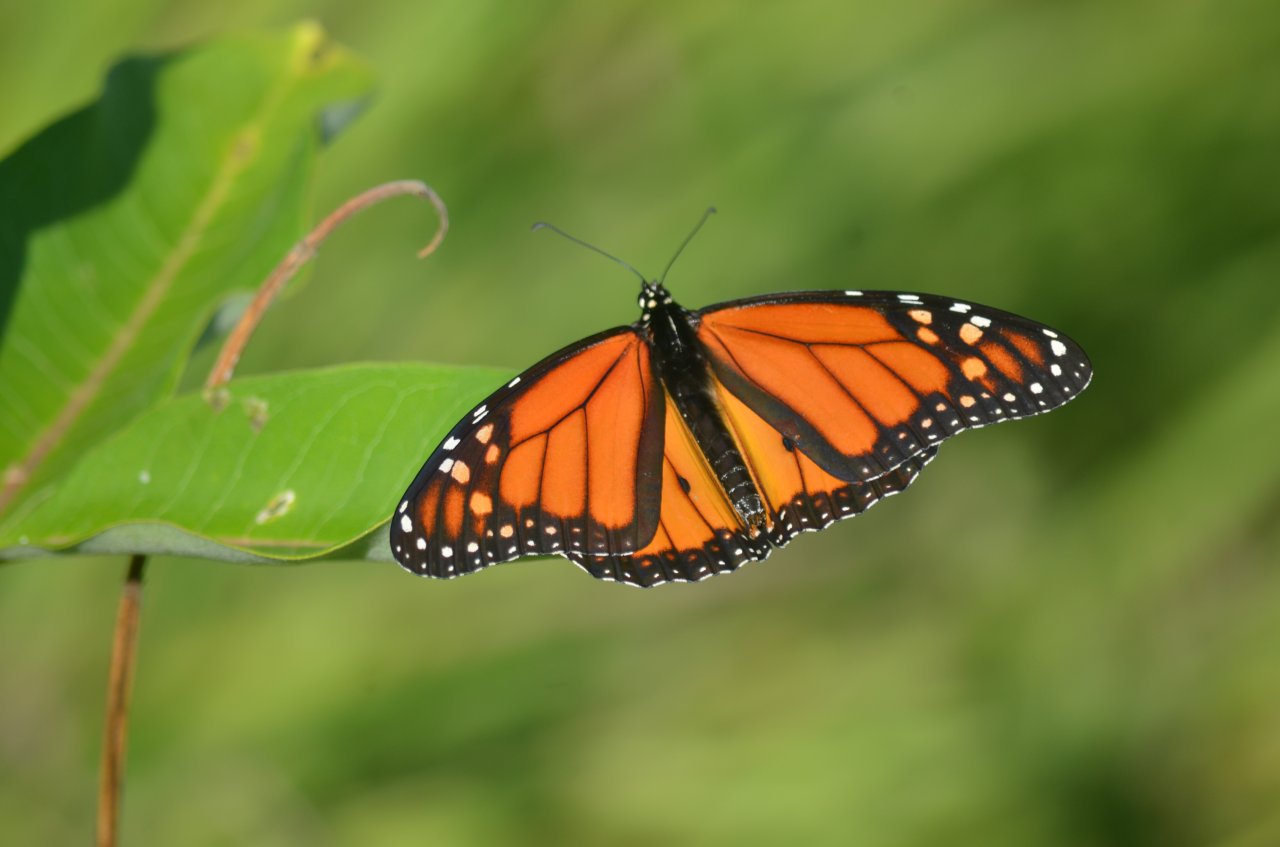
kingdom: Animalia
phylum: Arthropoda
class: Insecta
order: Lepidoptera
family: Nymphalidae
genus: Danaus
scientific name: Danaus plexippus
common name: Monarch
